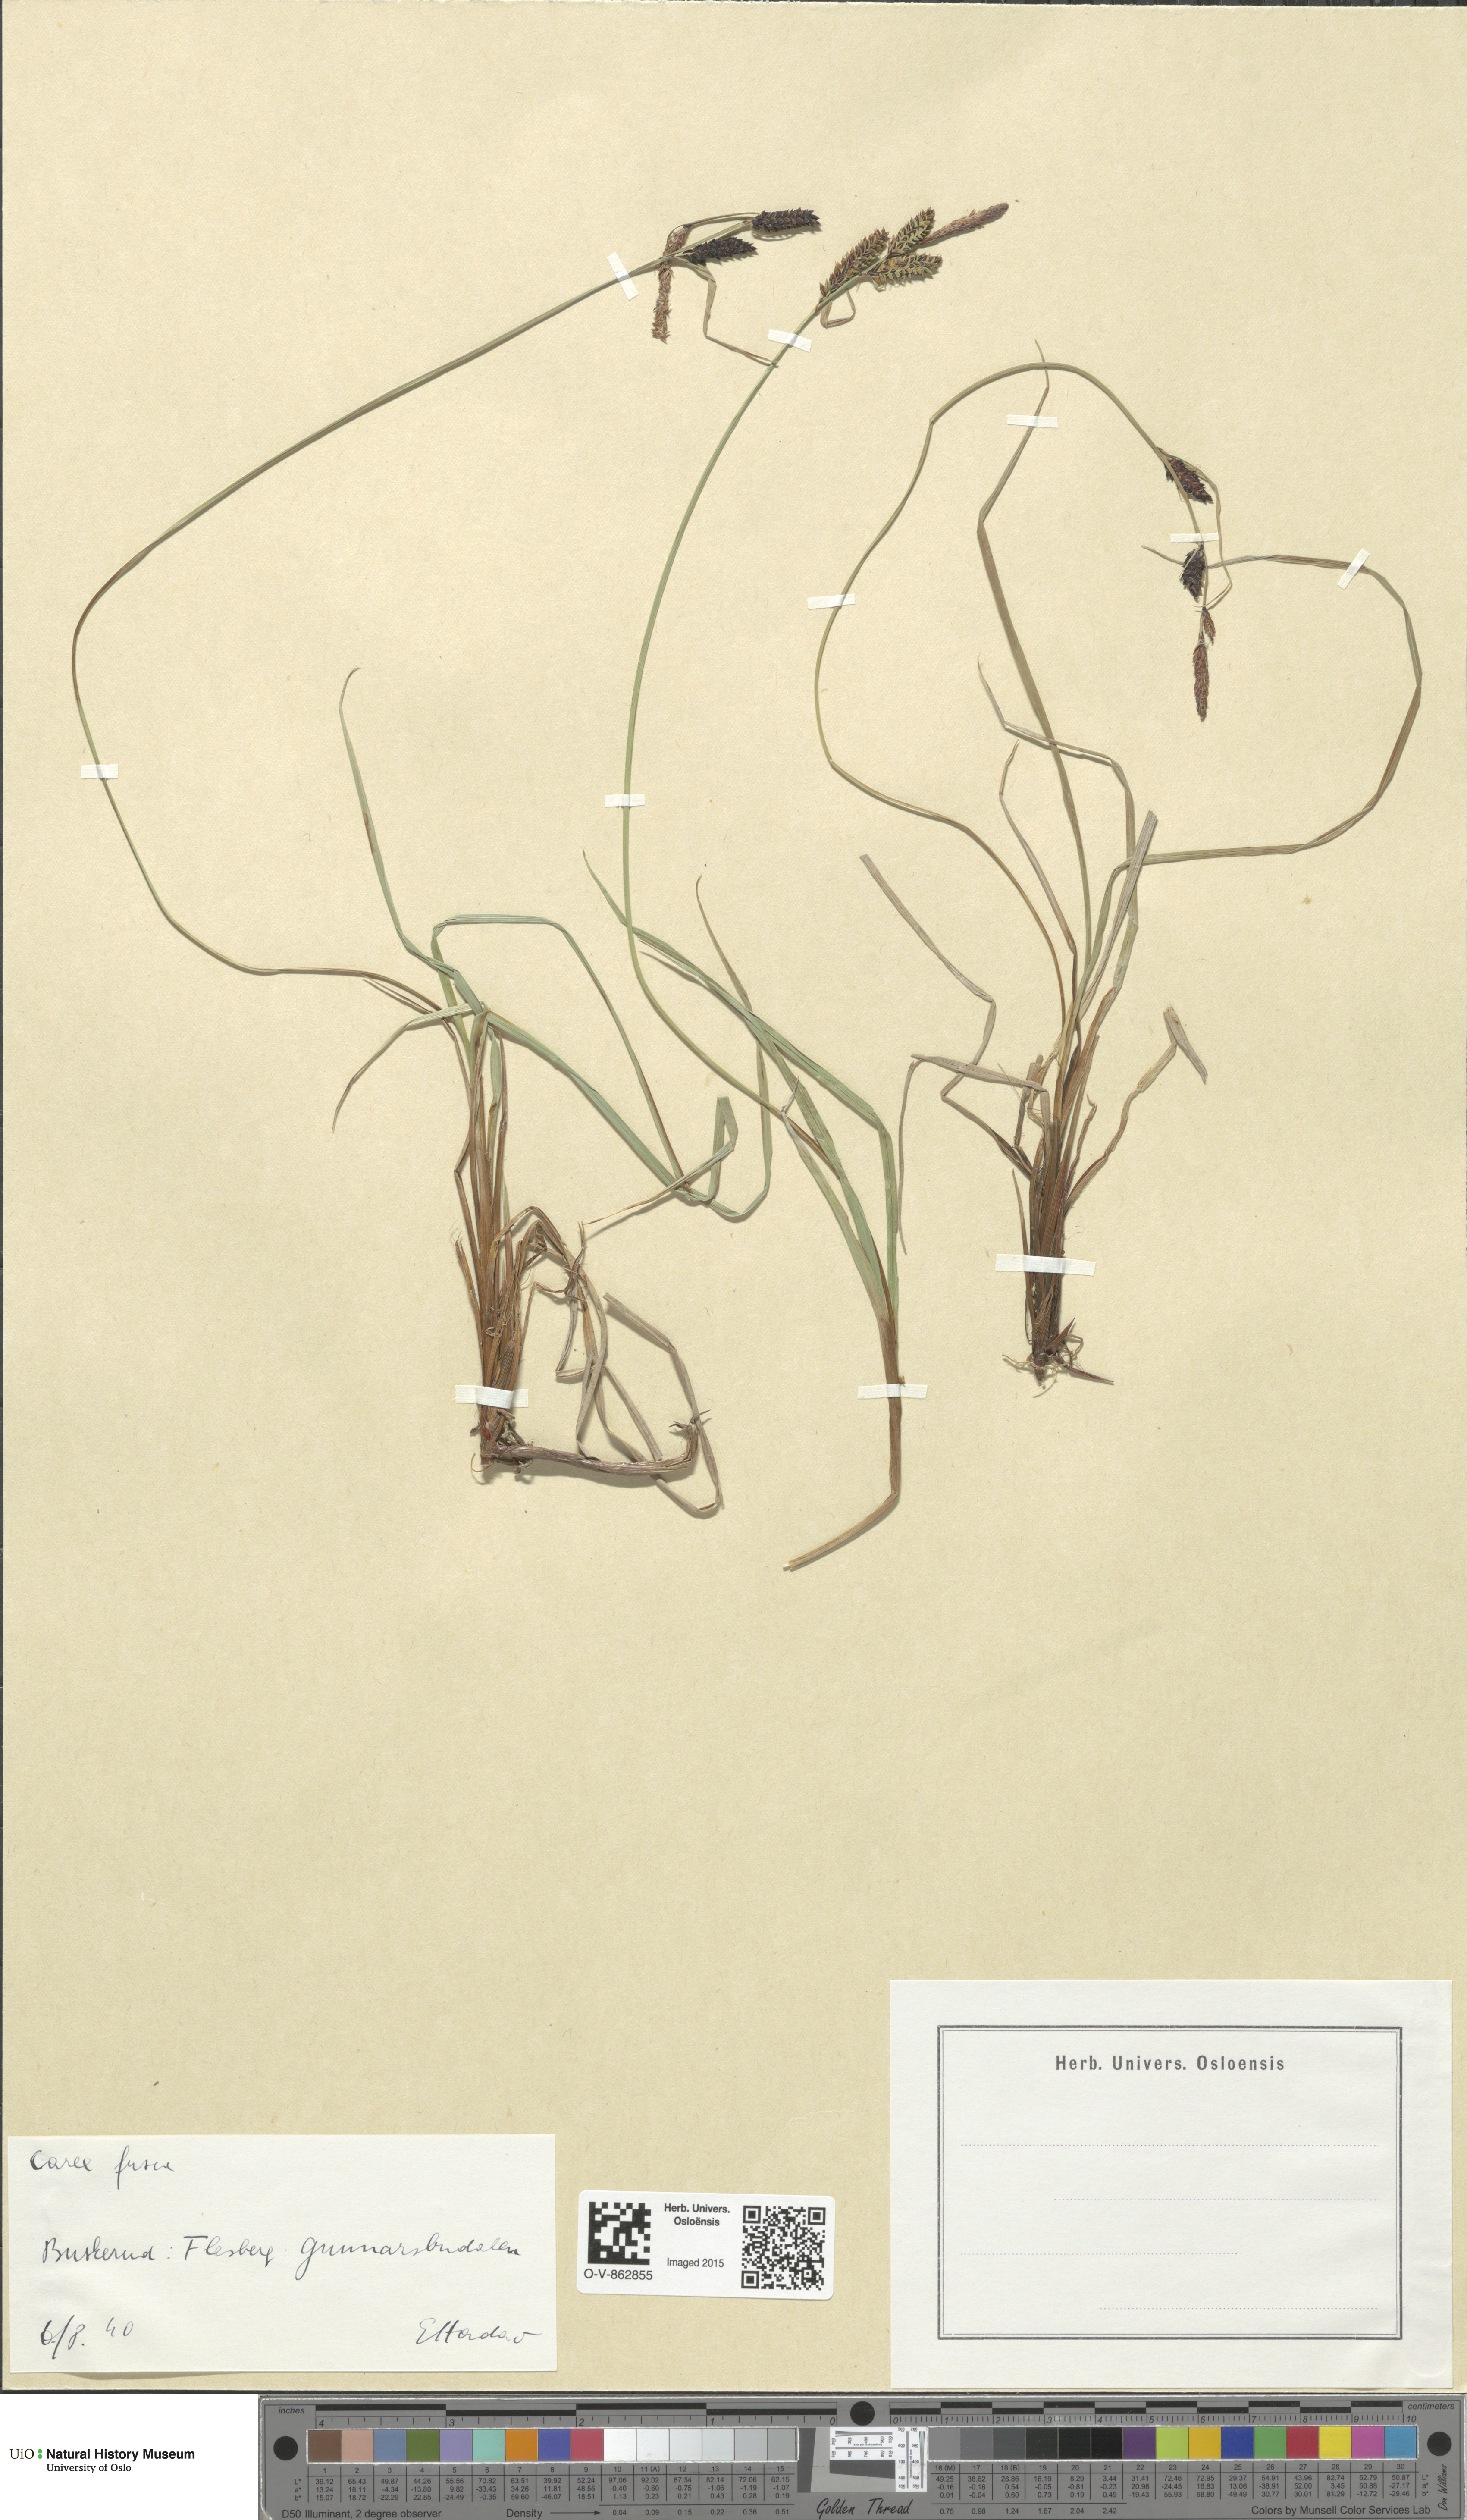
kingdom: Plantae
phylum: Tracheophyta
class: Liliopsida
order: Poales
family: Cyperaceae
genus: Carex
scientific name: Carex nigra
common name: Common sedge
